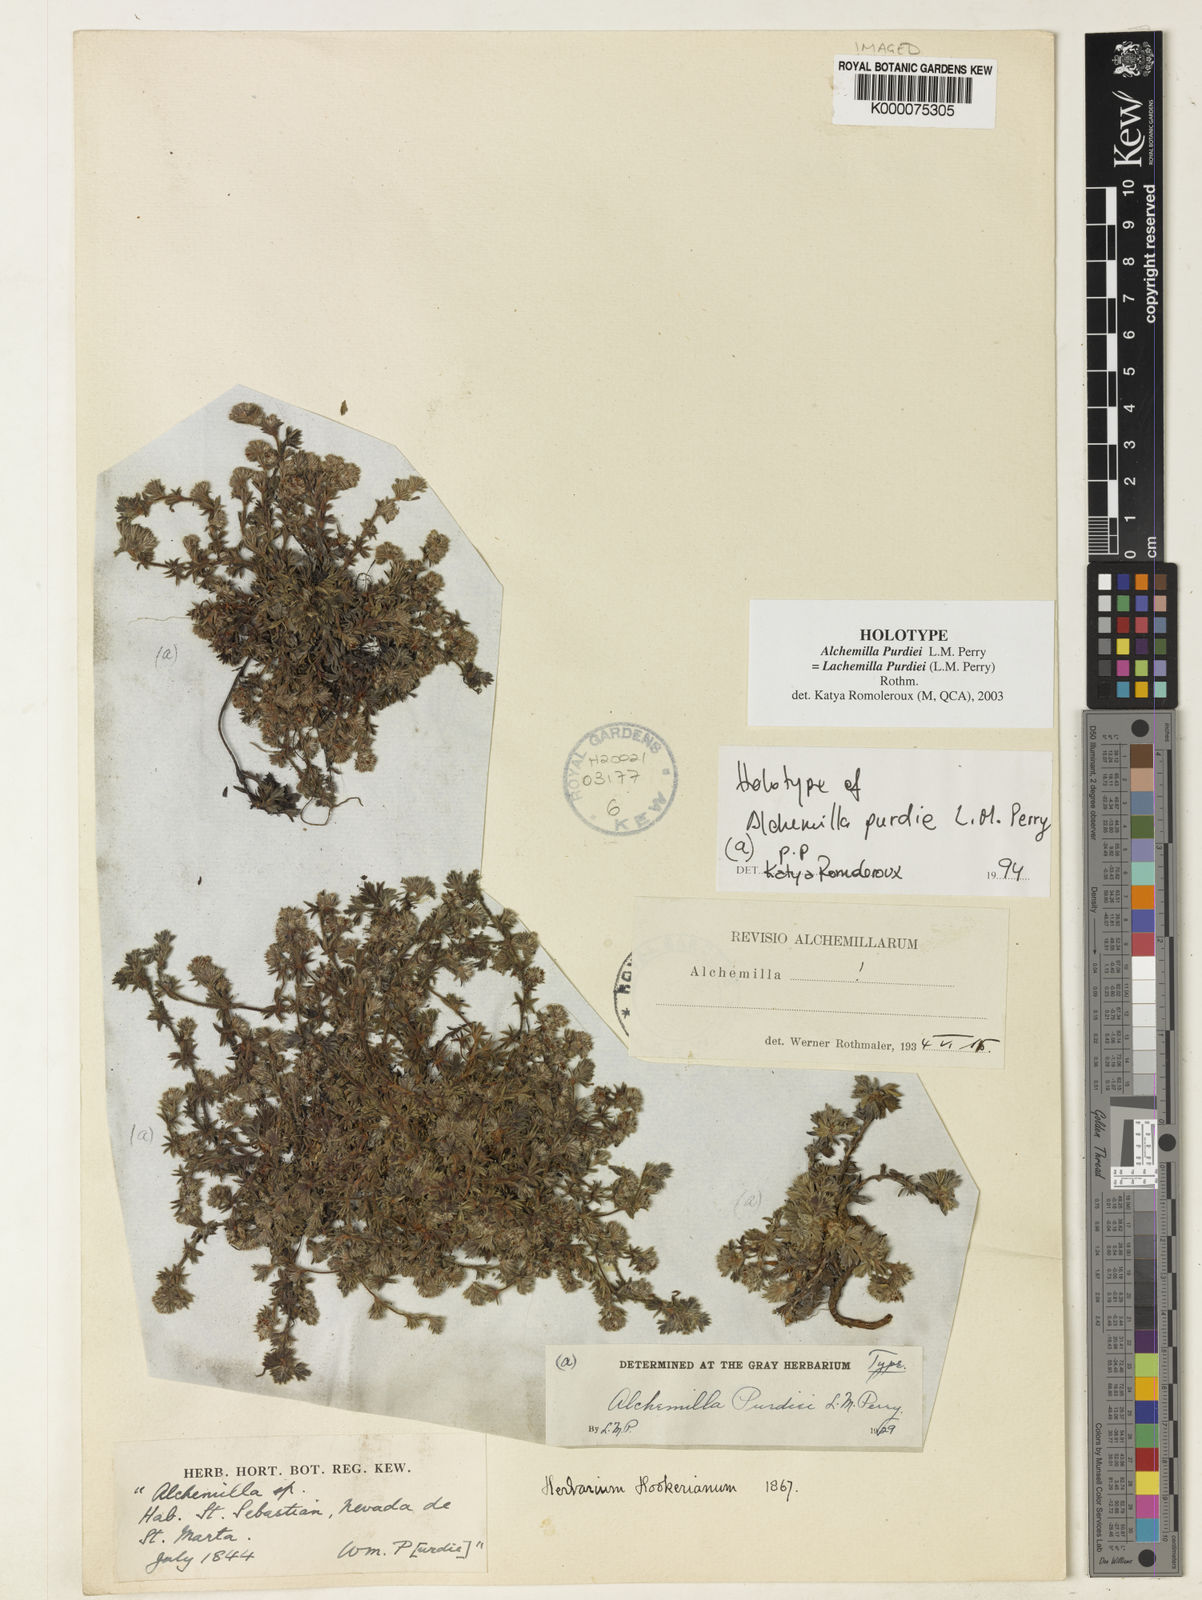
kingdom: Plantae
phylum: Tracheophyta
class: Magnoliopsida
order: Rosales
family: Rosaceae
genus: Lachemilla
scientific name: Lachemilla purdiei
